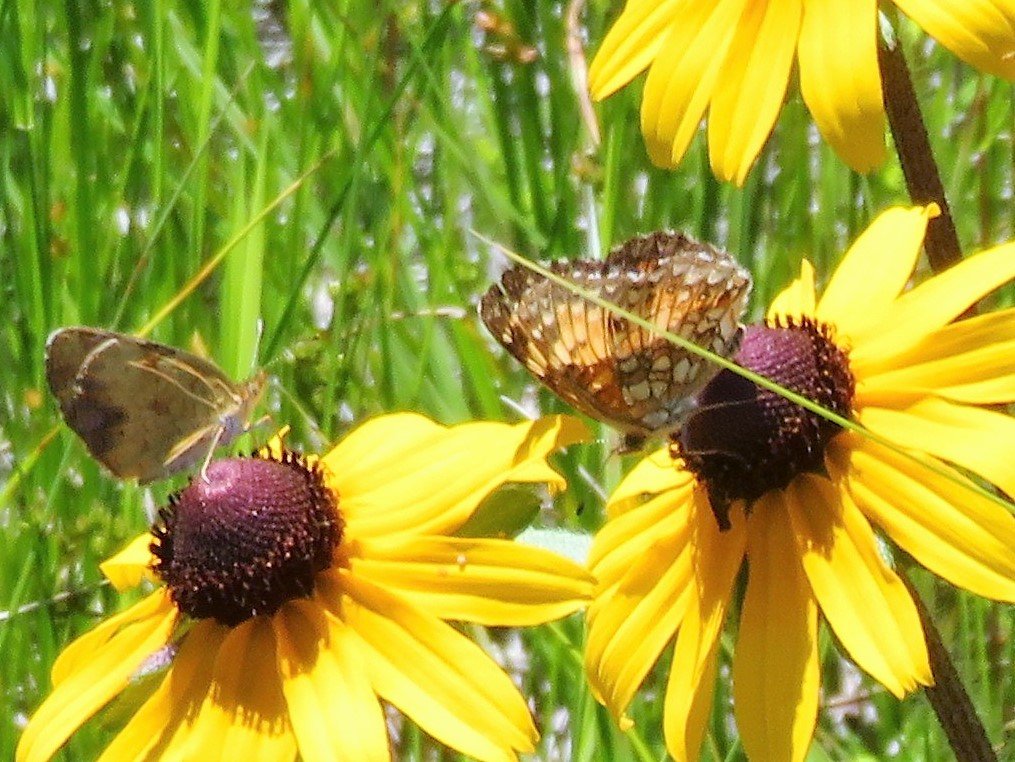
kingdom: Animalia
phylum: Arthropoda
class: Insecta
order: Lepidoptera
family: Nymphalidae
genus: Chlosyne
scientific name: Chlosyne harrisii
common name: Harris's Checkerspot
